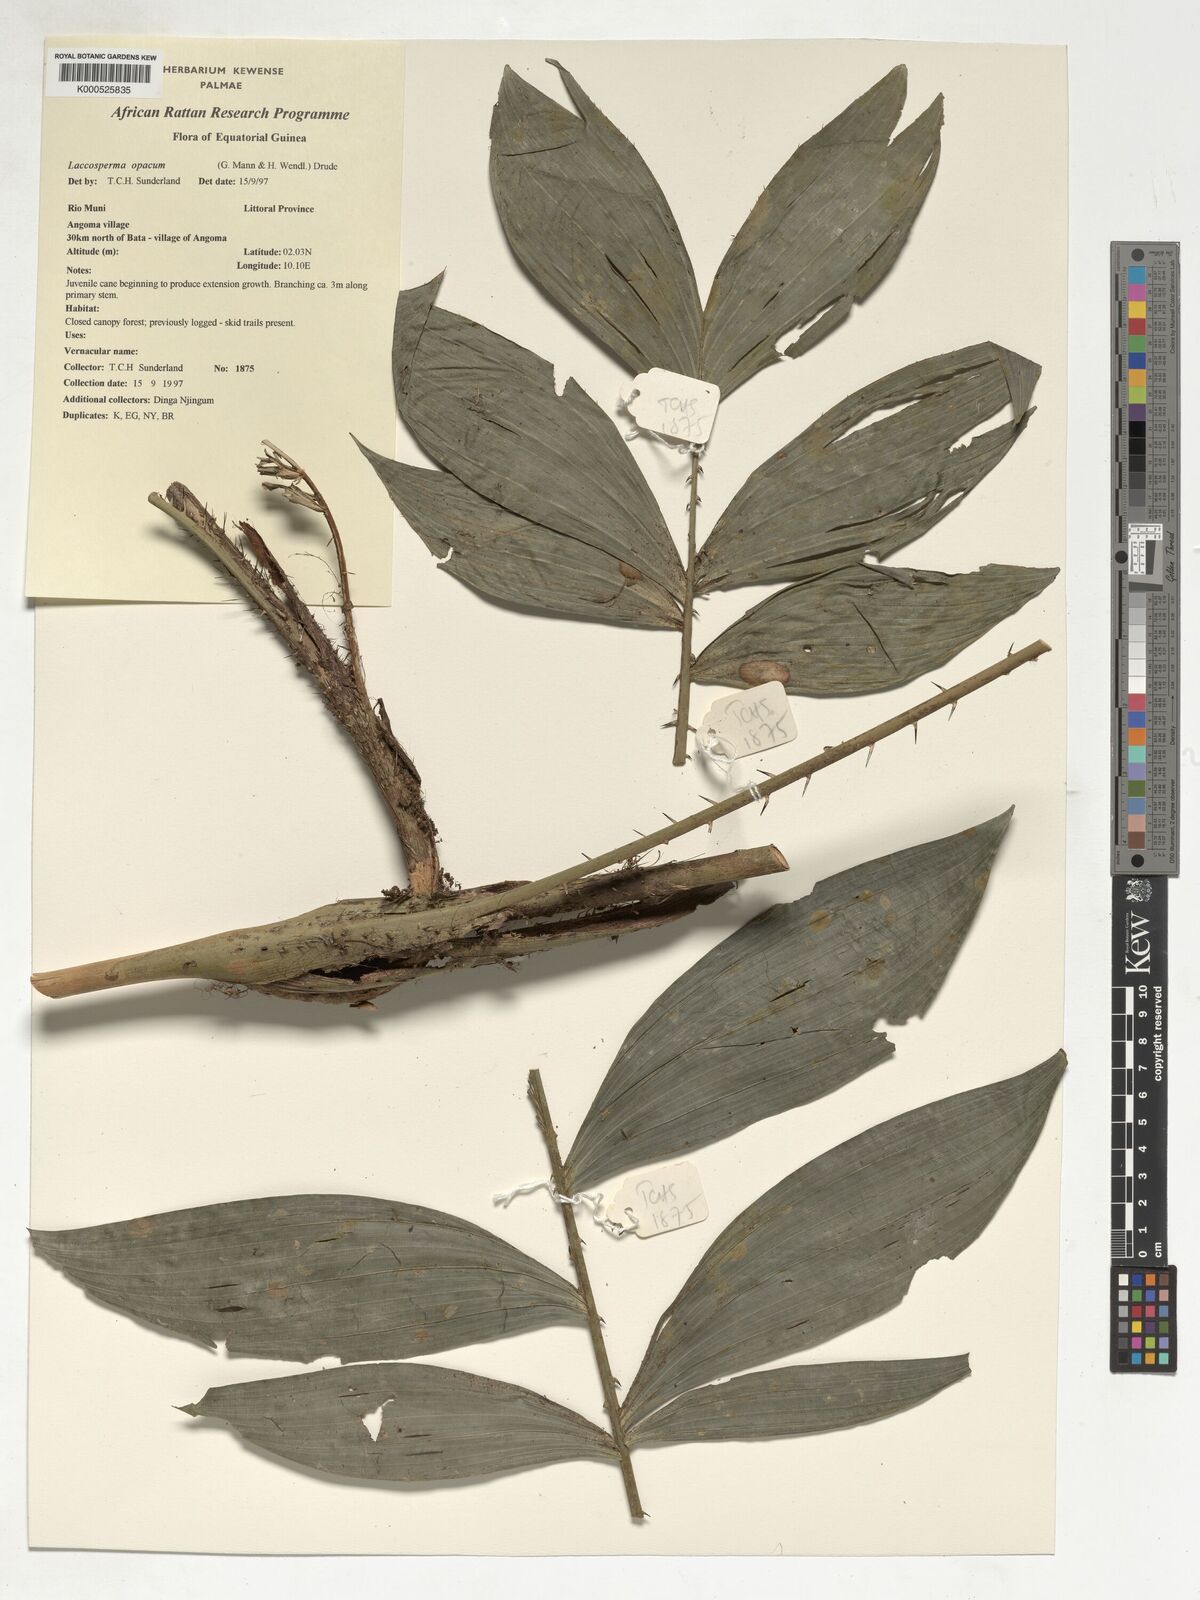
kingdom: Plantae
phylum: Tracheophyta
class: Liliopsida
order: Arecales
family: Arecaceae
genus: Laccosperma
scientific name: Laccosperma opacum
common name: Rattan
